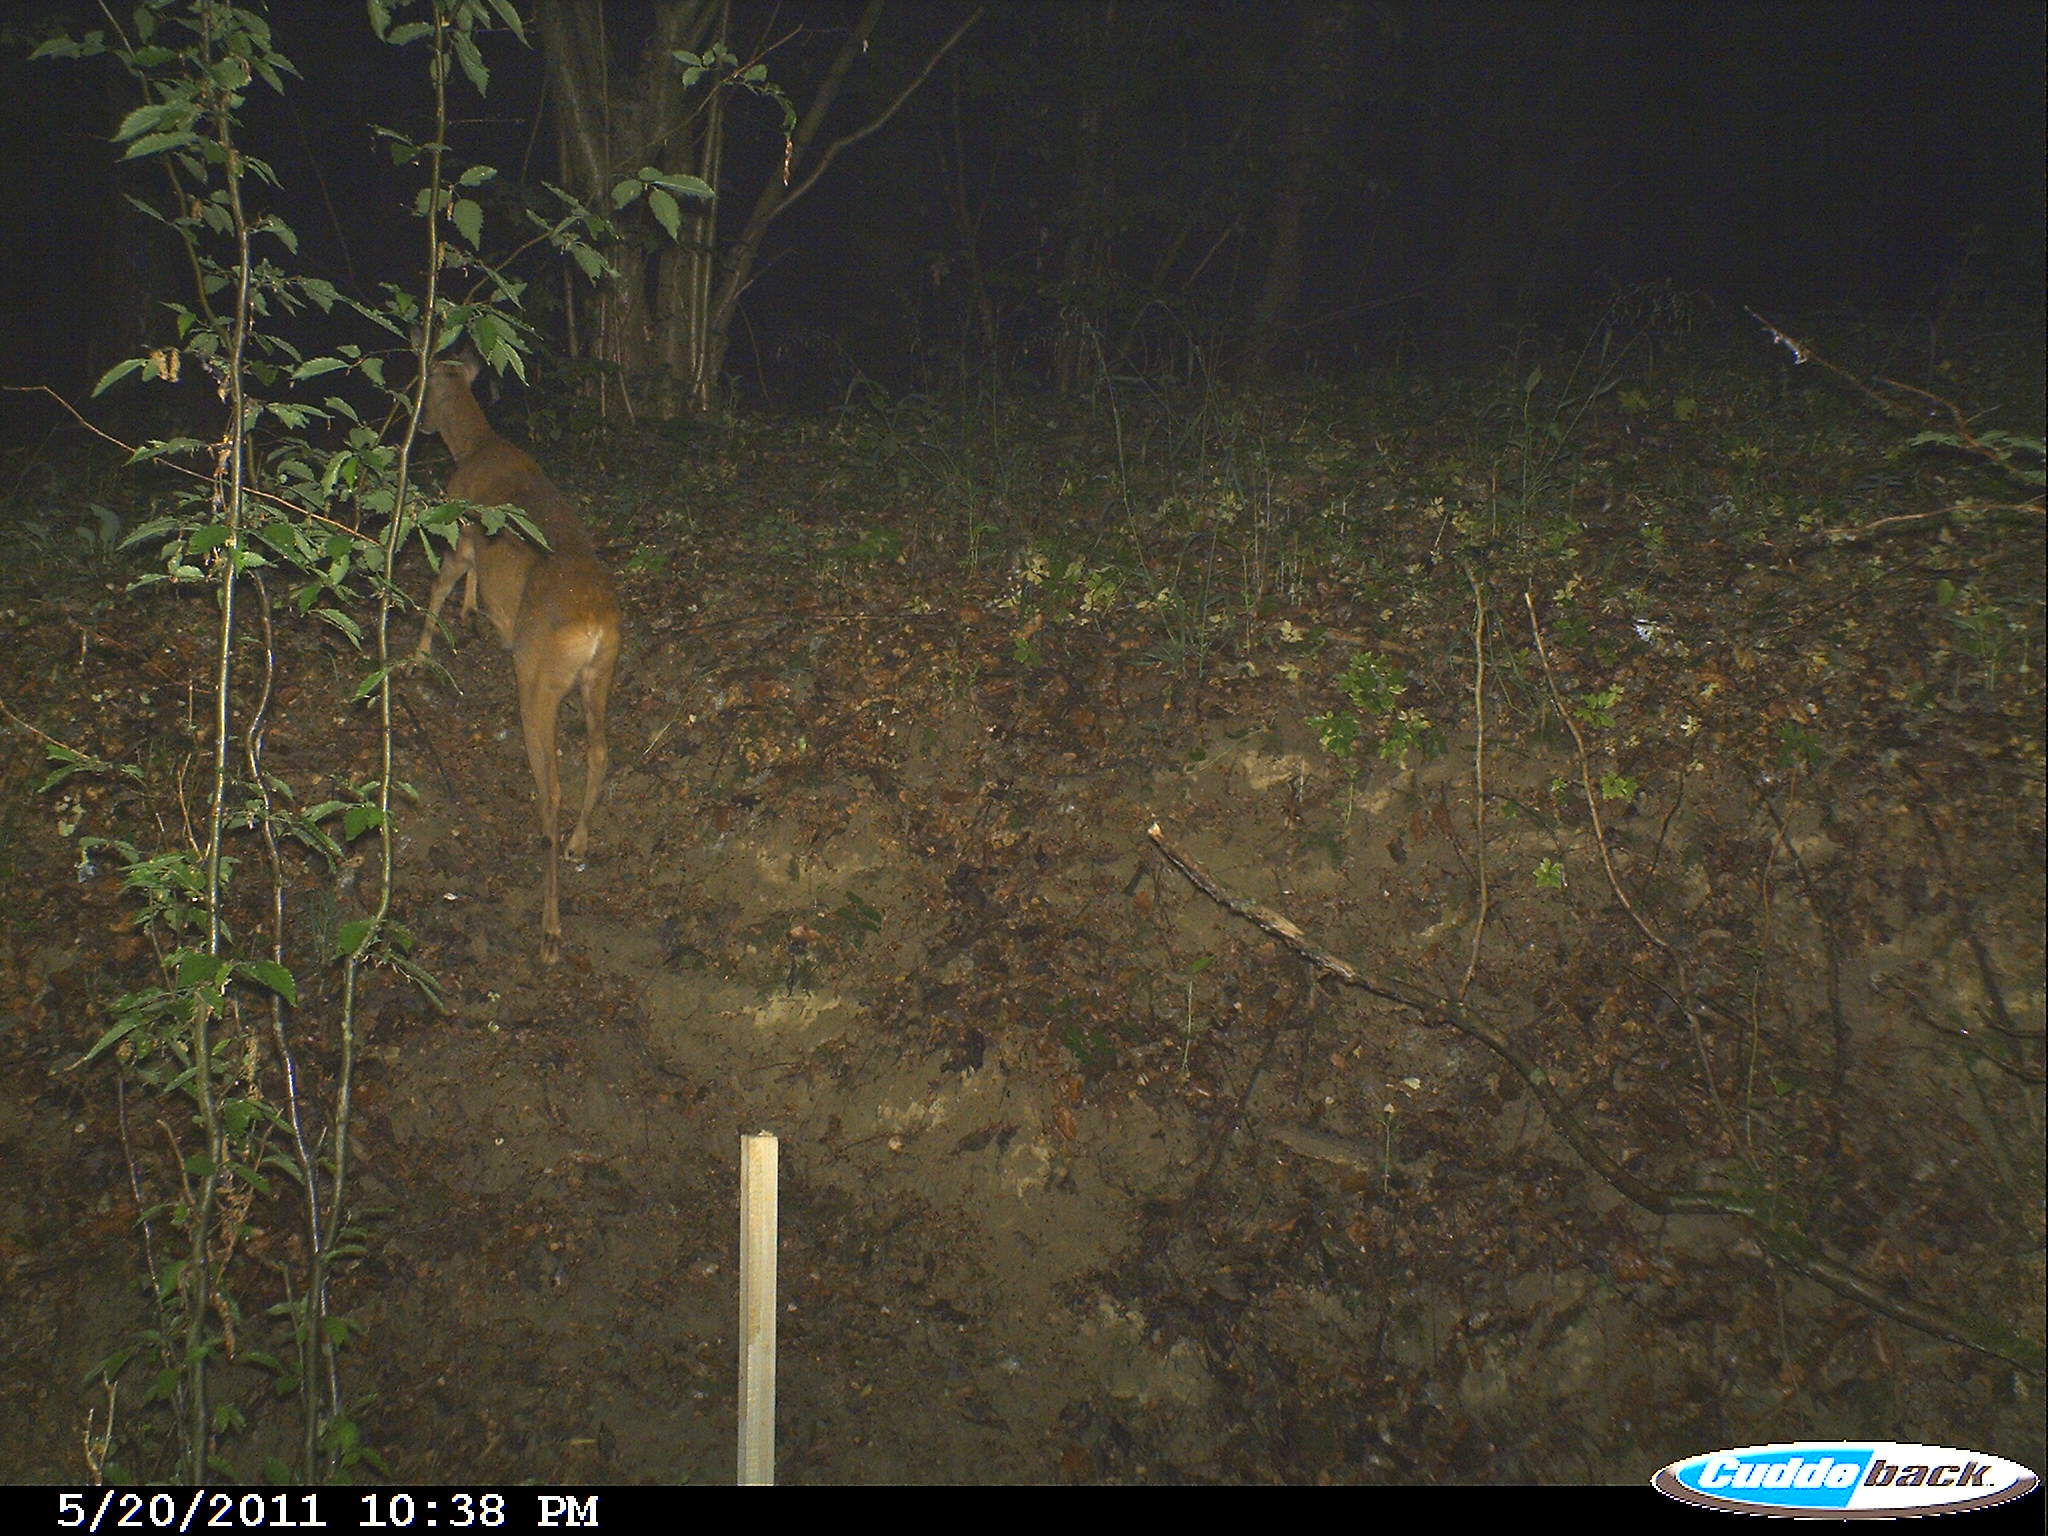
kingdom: Animalia
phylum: Chordata
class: Mammalia
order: Artiodactyla
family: Cervidae
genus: Capreolus
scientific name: Capreolus capreolus
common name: Western roe deer
